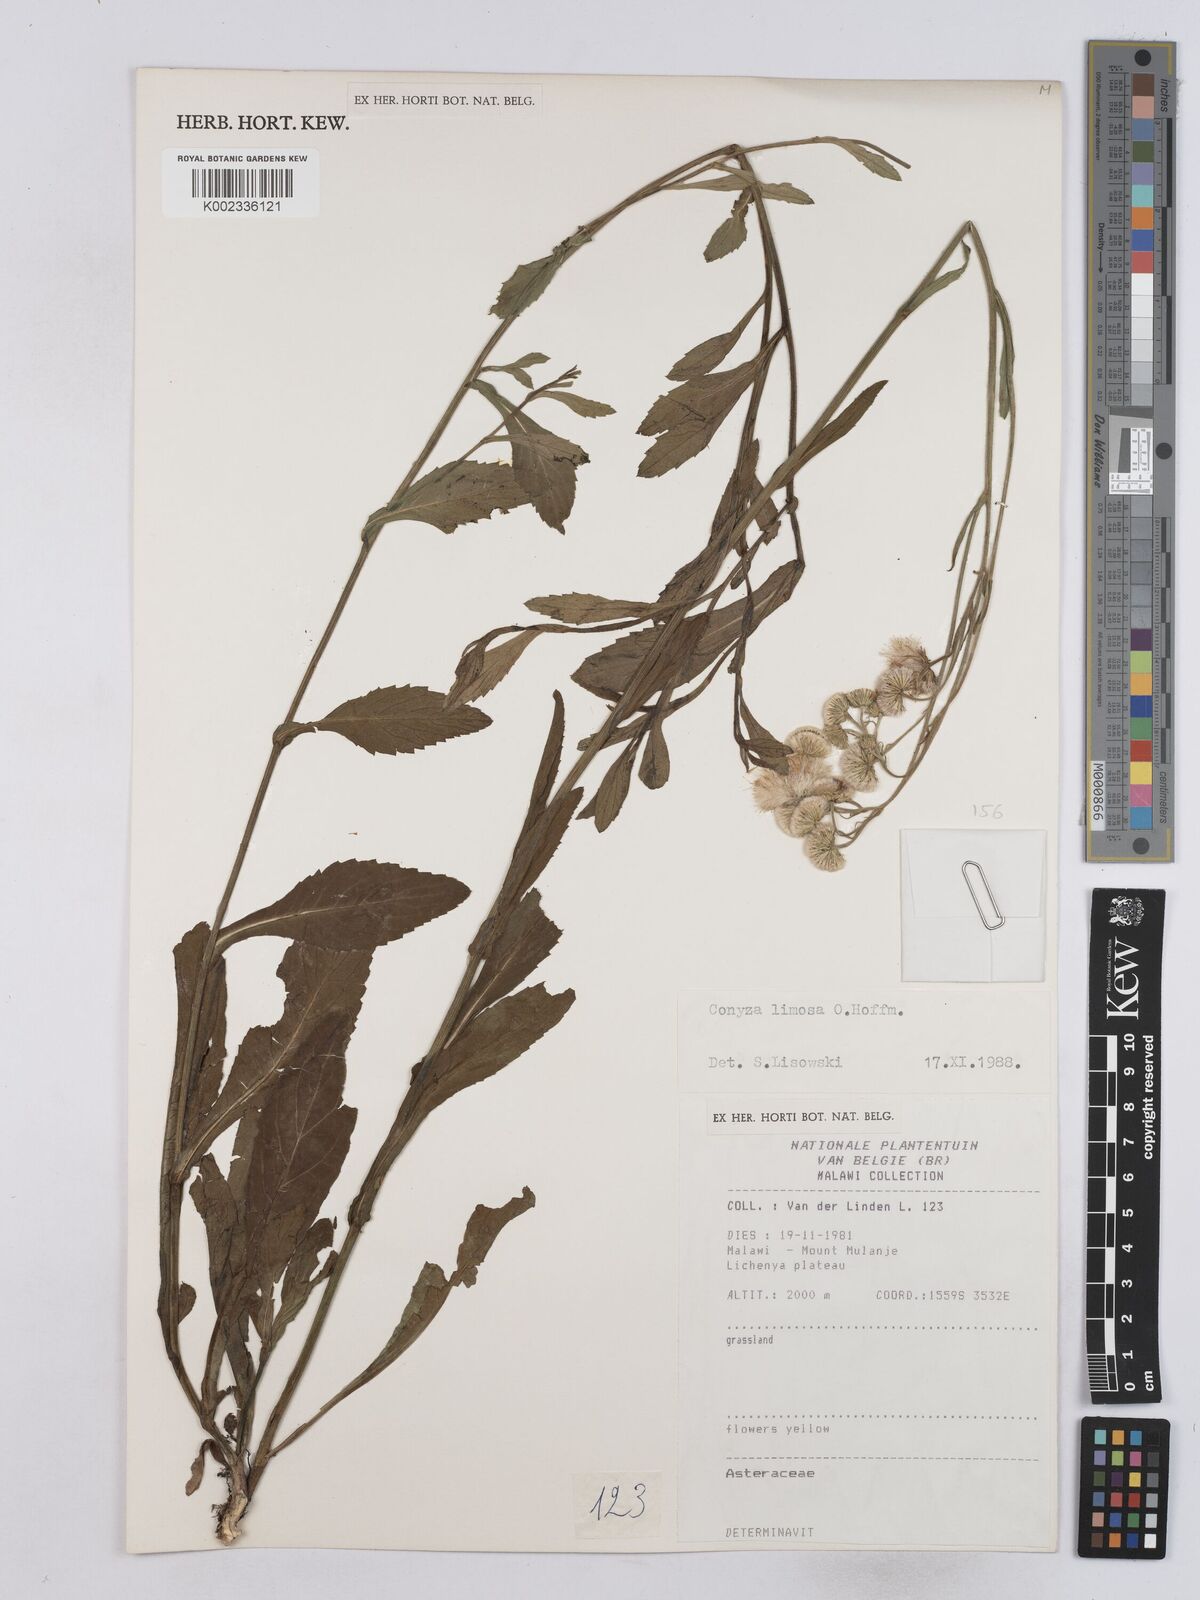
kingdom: Plantae
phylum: Tracheophyta
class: Magnoliopsida
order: Asterales
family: Asteraceae
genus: Conyza
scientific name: Conyza limosa
